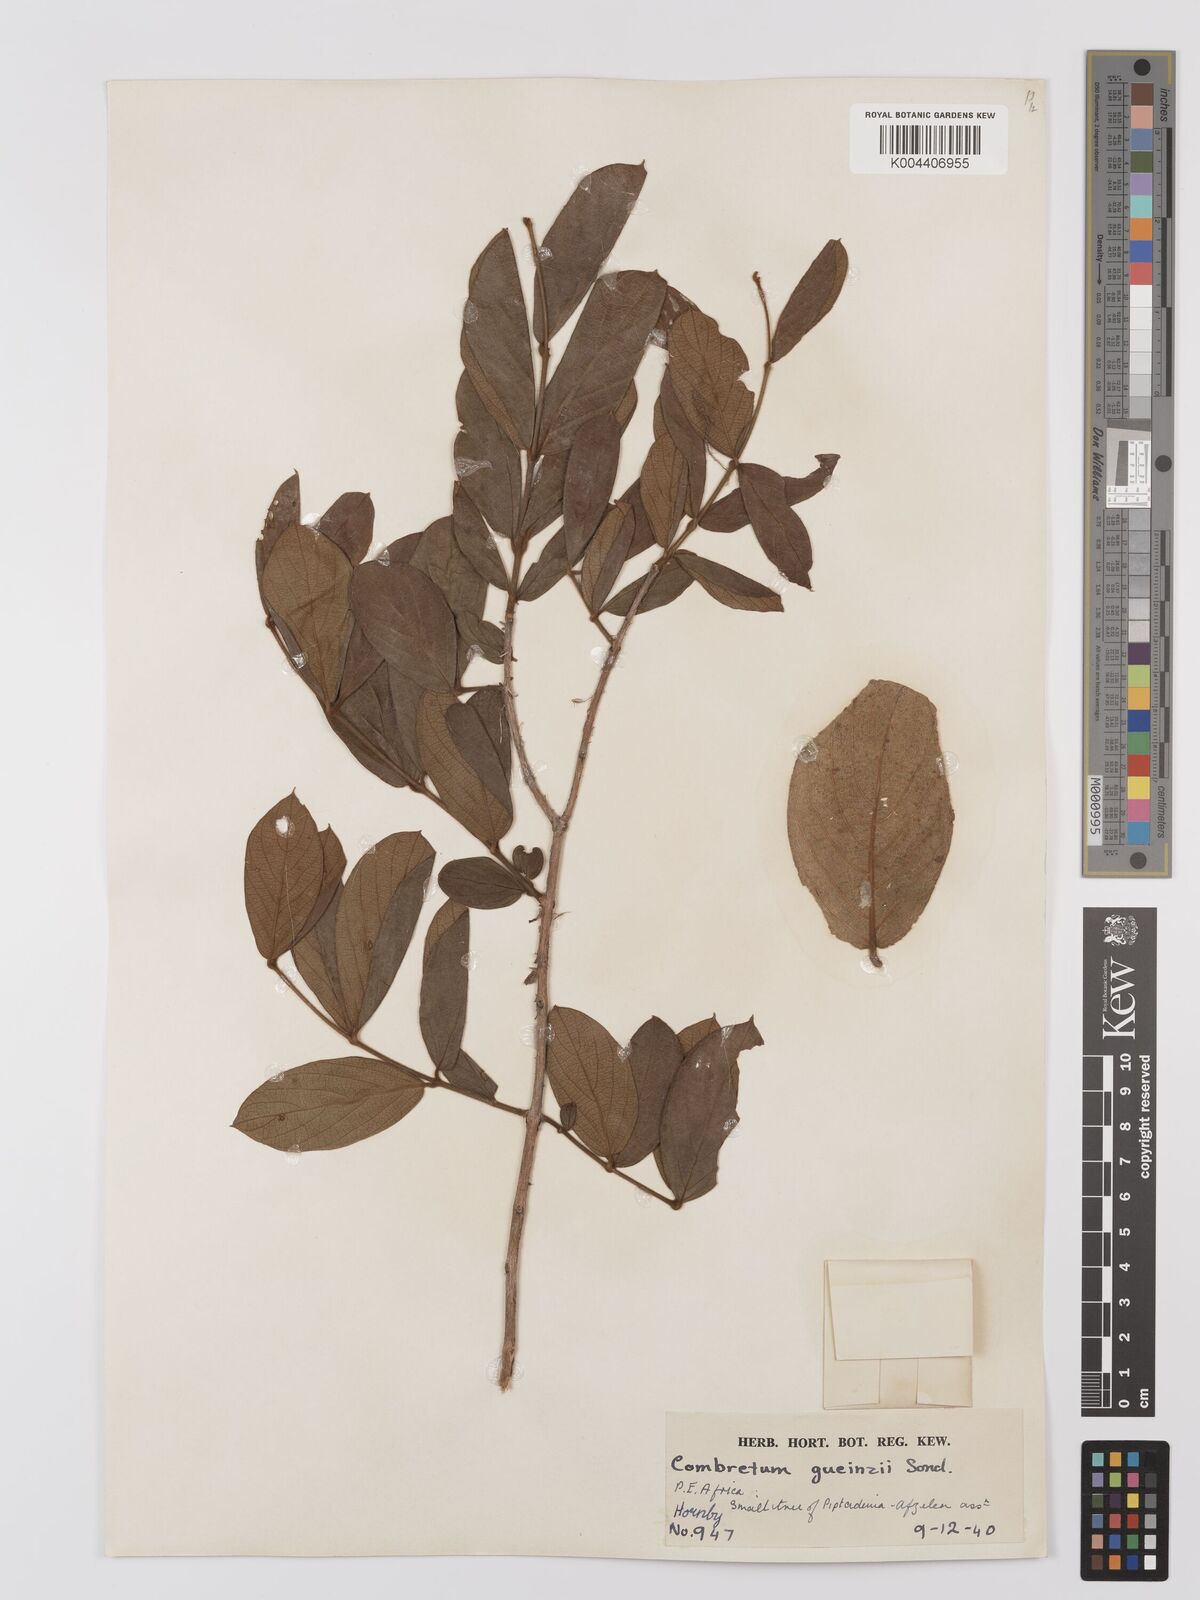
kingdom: Plantae
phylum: Tracheophyta
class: Magnoliopsida
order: Myrtales
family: Combretaceae
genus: Combretum
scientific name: Combretum
